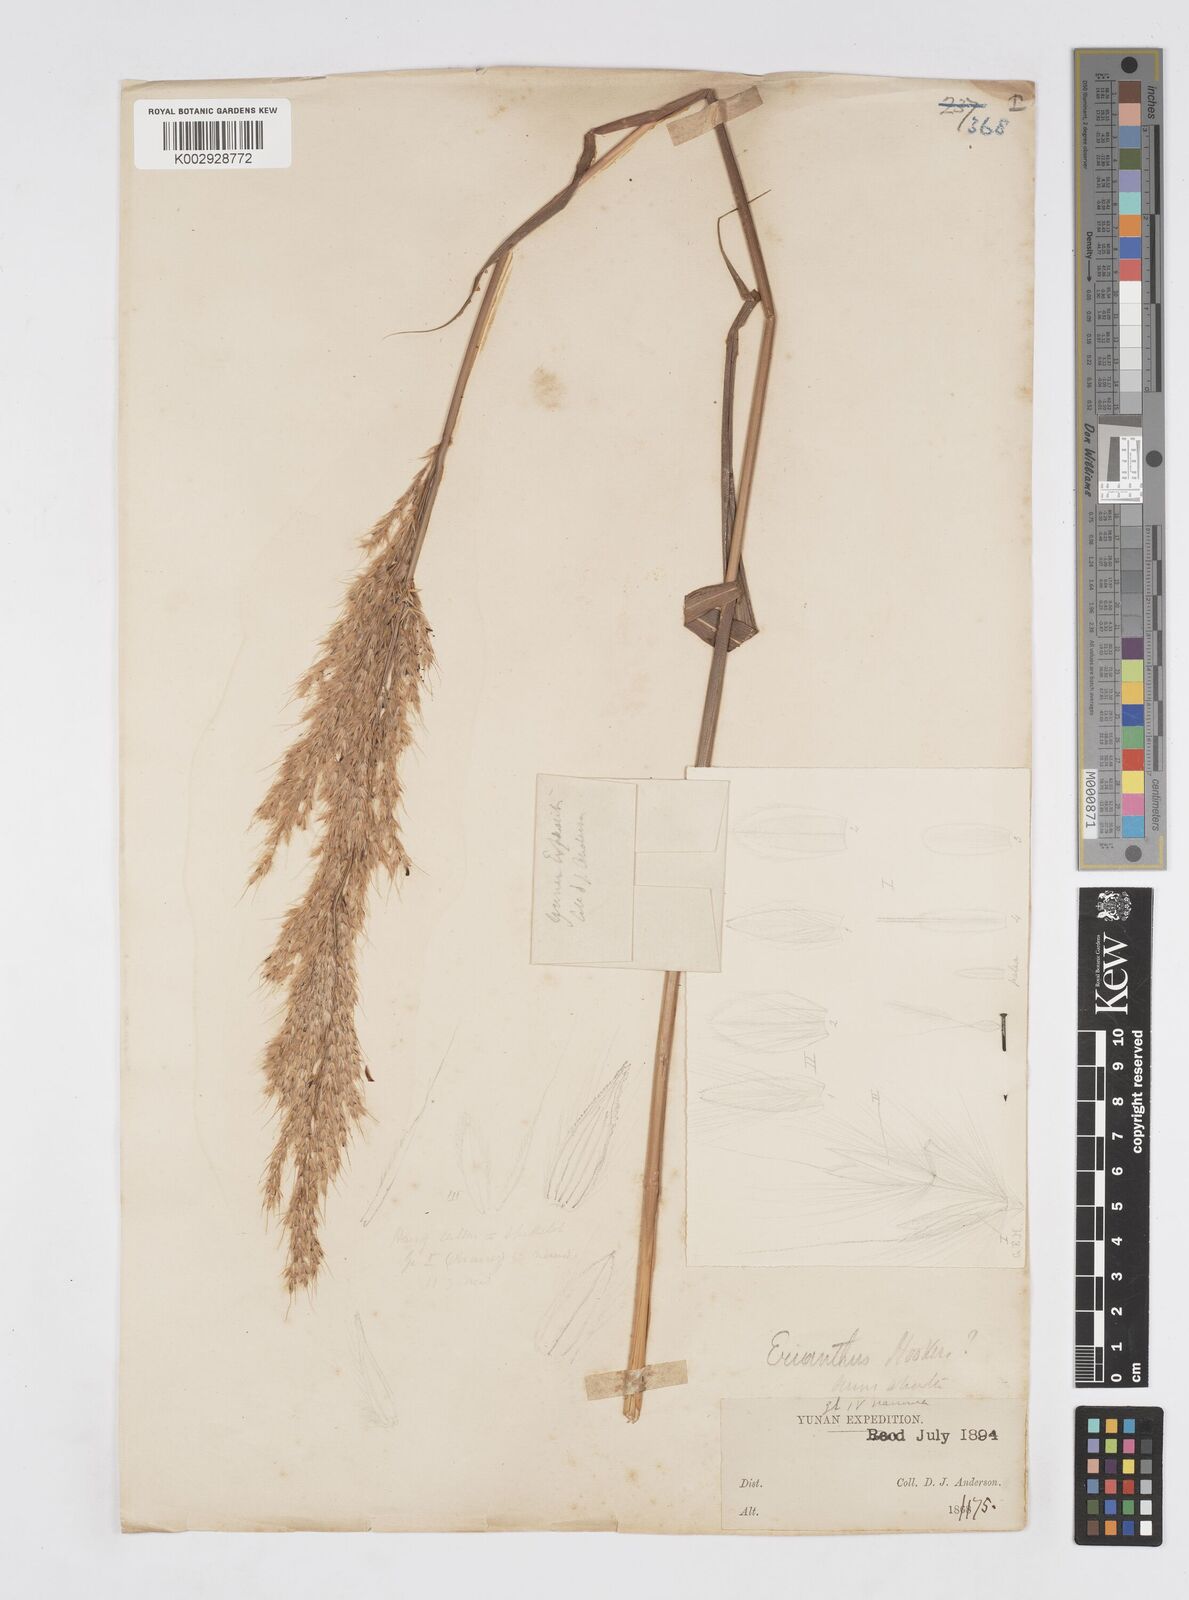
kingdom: Plantae
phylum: Tracheophyta
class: Liliopsida
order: Poales
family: Poaceae
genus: Melinis
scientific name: Melinis longiseta
